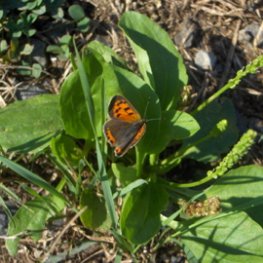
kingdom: Animalia
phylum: Arthropoda
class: Insecta
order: Lepidoptera
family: Lycaenidae
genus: Lycaena
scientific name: Lycaena phlaeas
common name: American Copper
